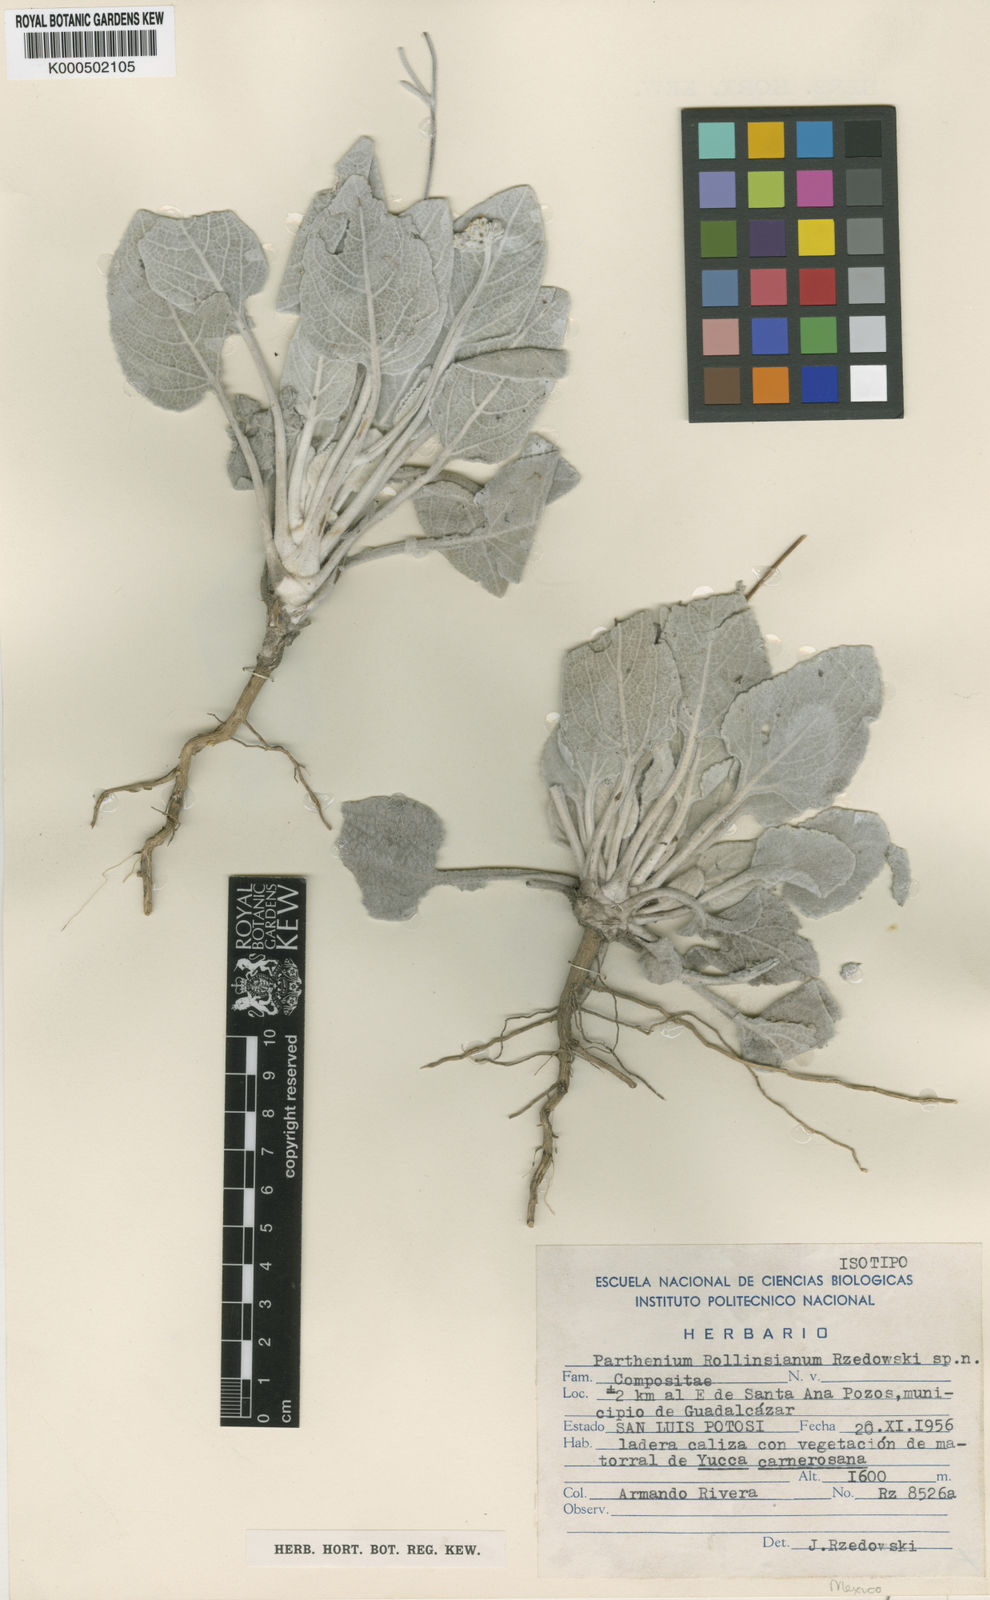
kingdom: Plantae
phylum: Tracheophyta
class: Magnoliopsida
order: Asterales
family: Asteraceae
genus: Parthenium
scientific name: Parthenium rollinsianum
